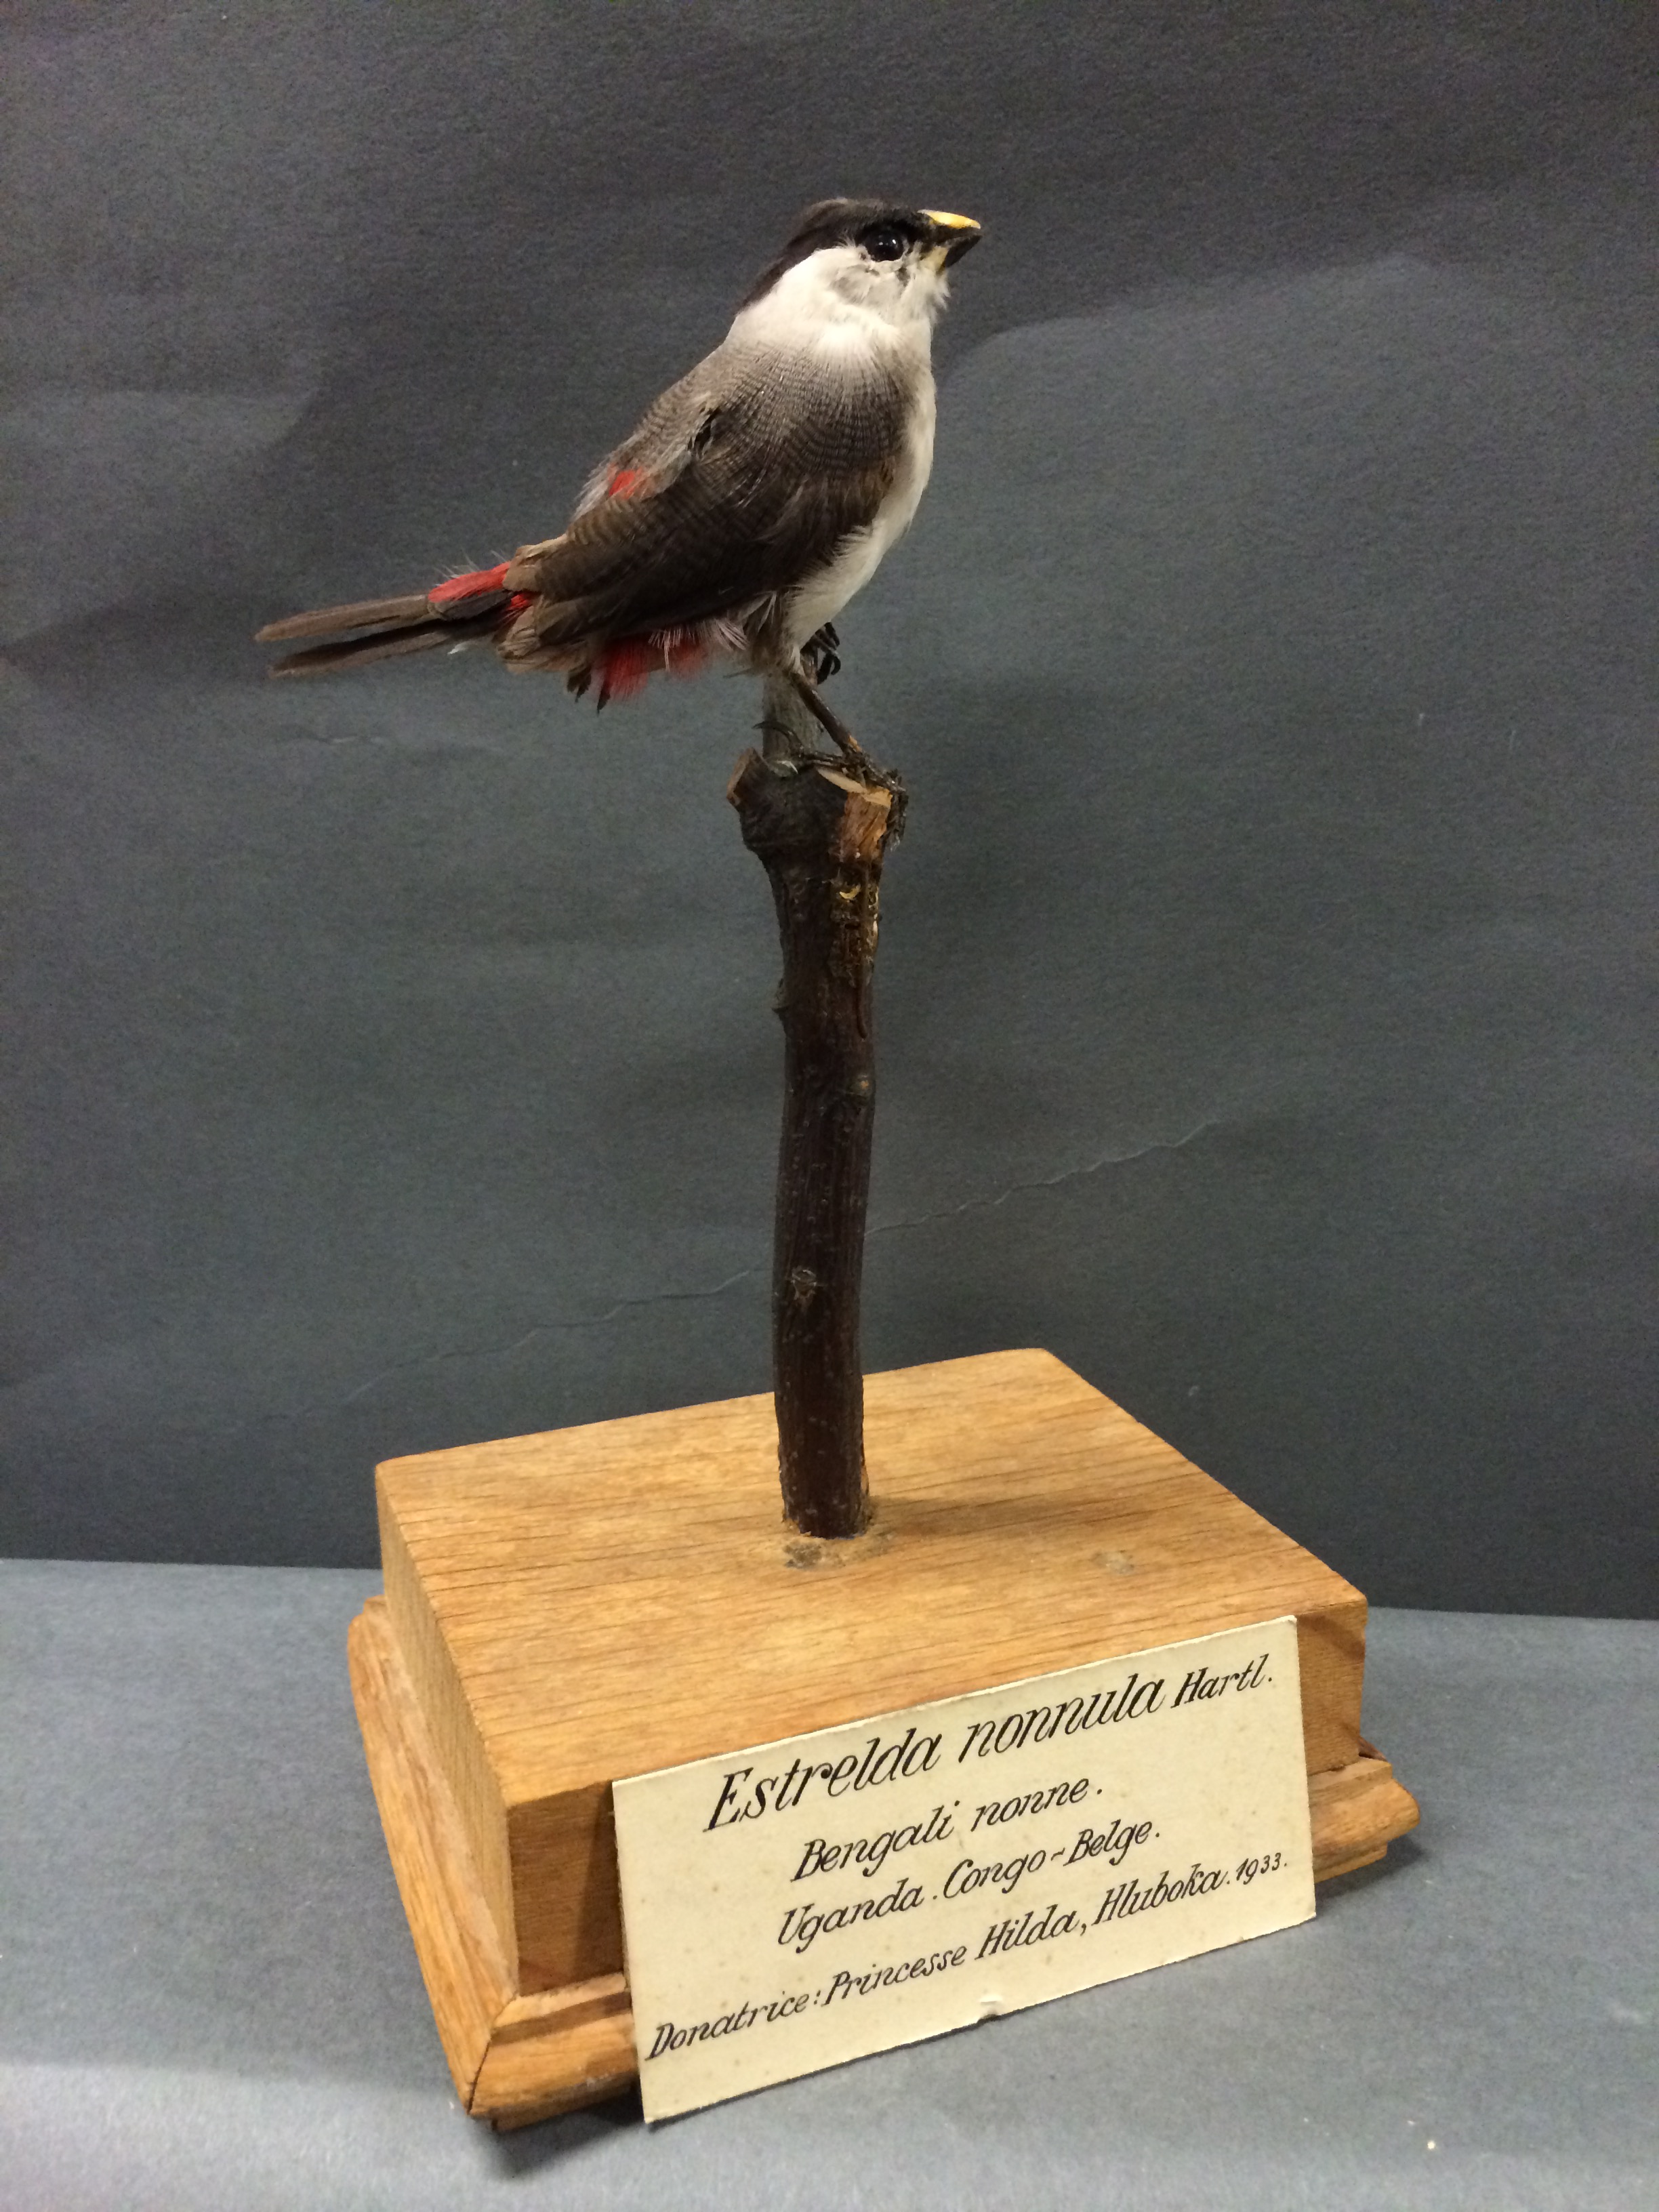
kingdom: Animalia
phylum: Chordata
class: Aves
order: Passeriformes
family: Estrildidae
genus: Estrilda
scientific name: Estrilda nonnula
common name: Black-crowned waxbill
